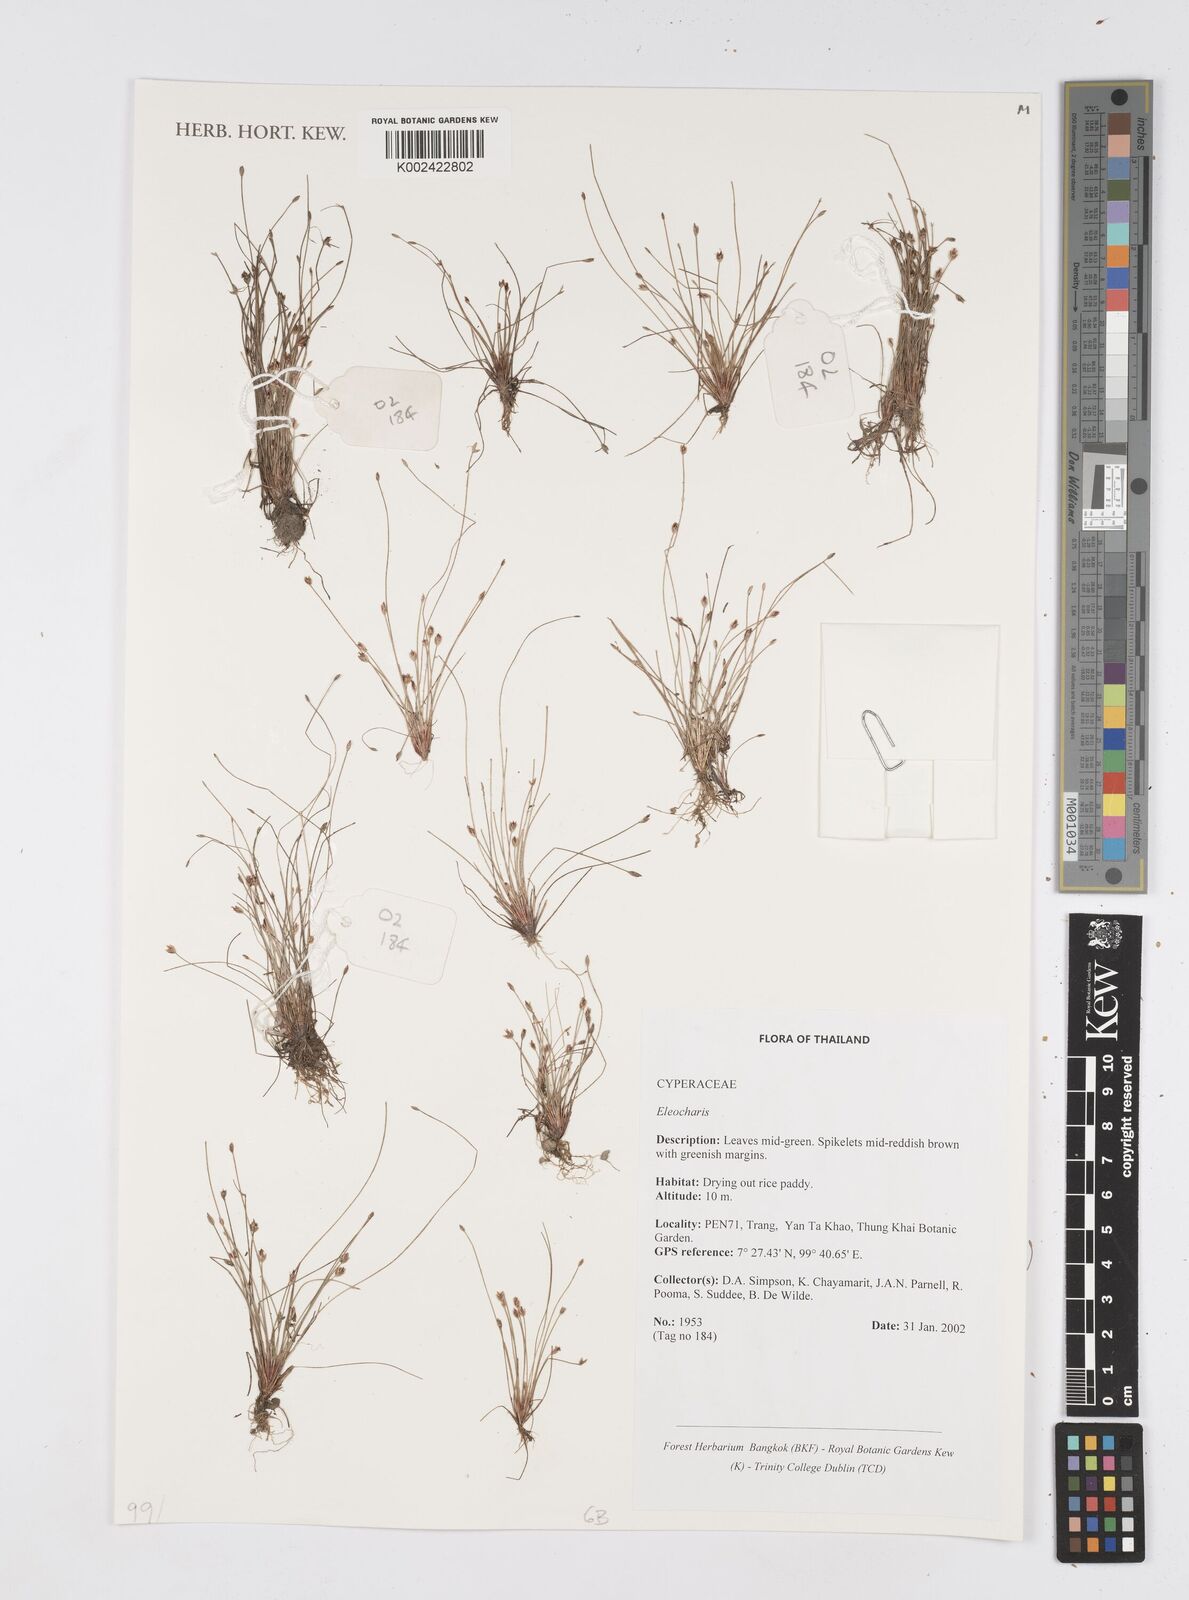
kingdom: Plantae
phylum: Tracheophyta
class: Liliopsida
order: Poales
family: Cyperaceae
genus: Eleocharis
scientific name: Eleocharis
